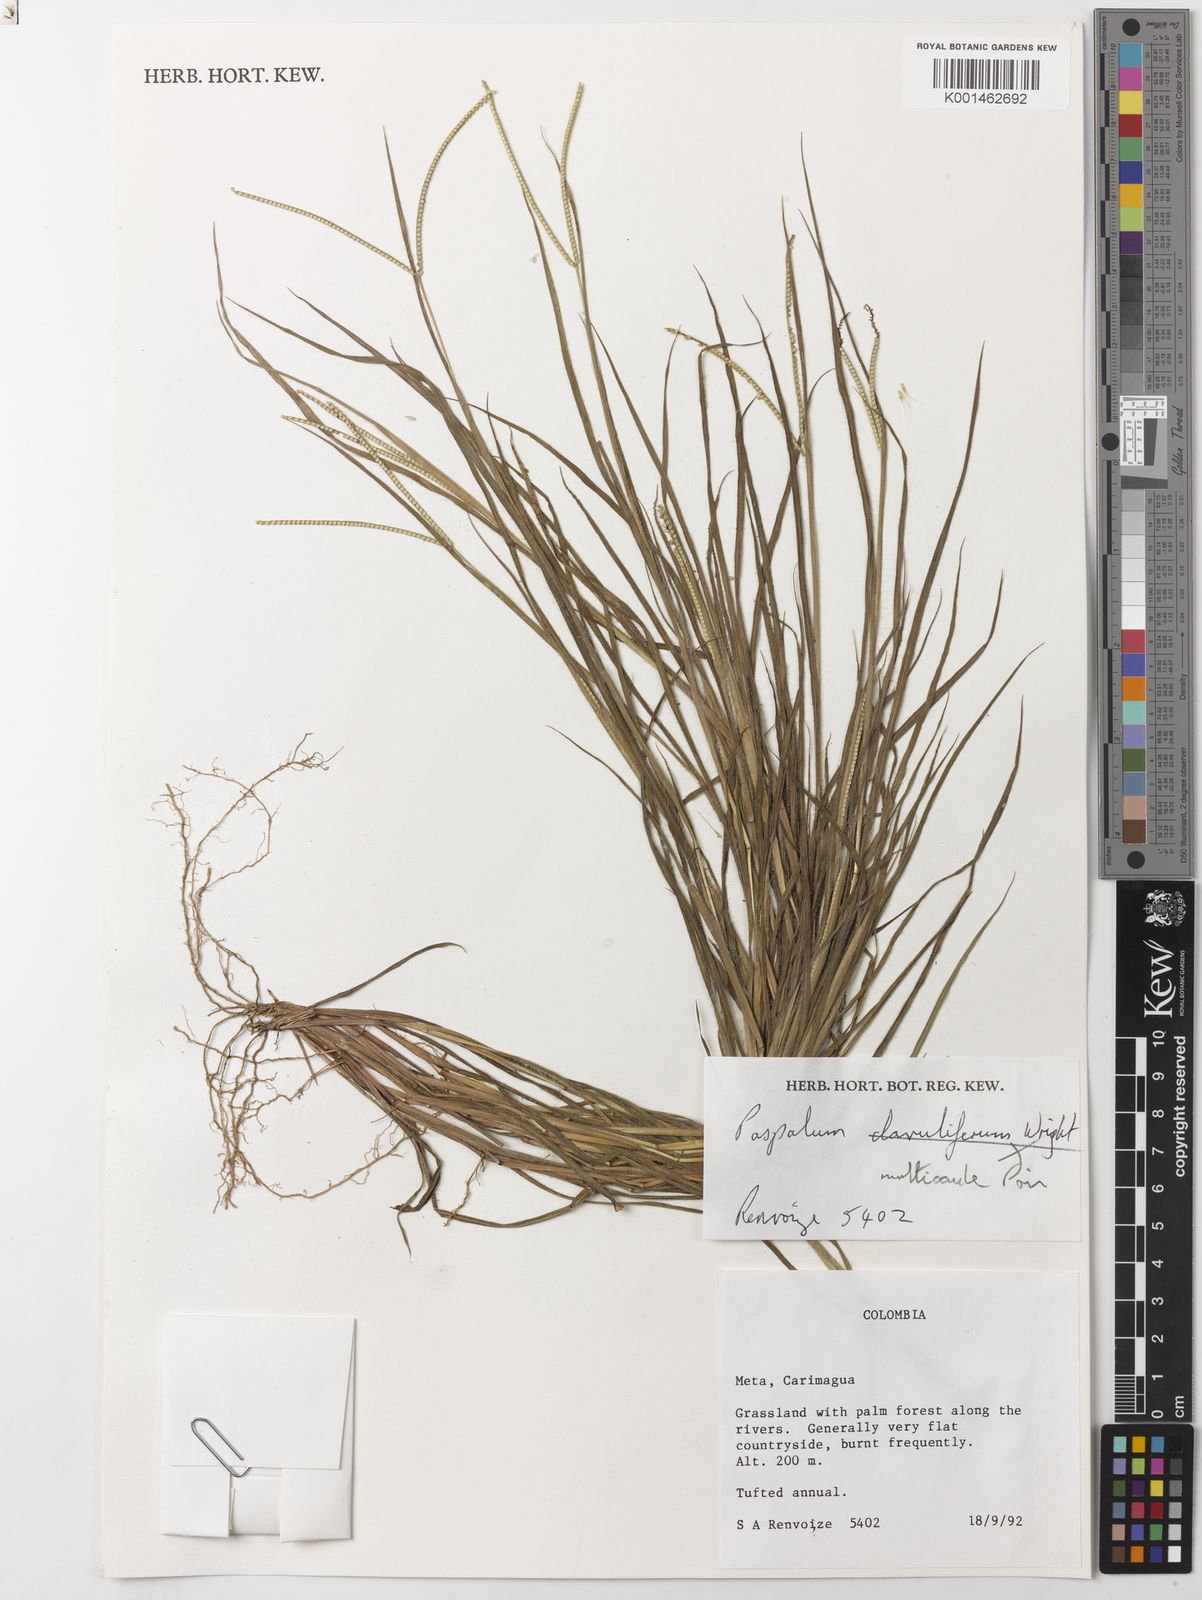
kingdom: Plantae
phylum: Tracheophyta
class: Liliopsida
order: Poales
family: Poaceae
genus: Paspalum
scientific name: Paspalum multicaule
